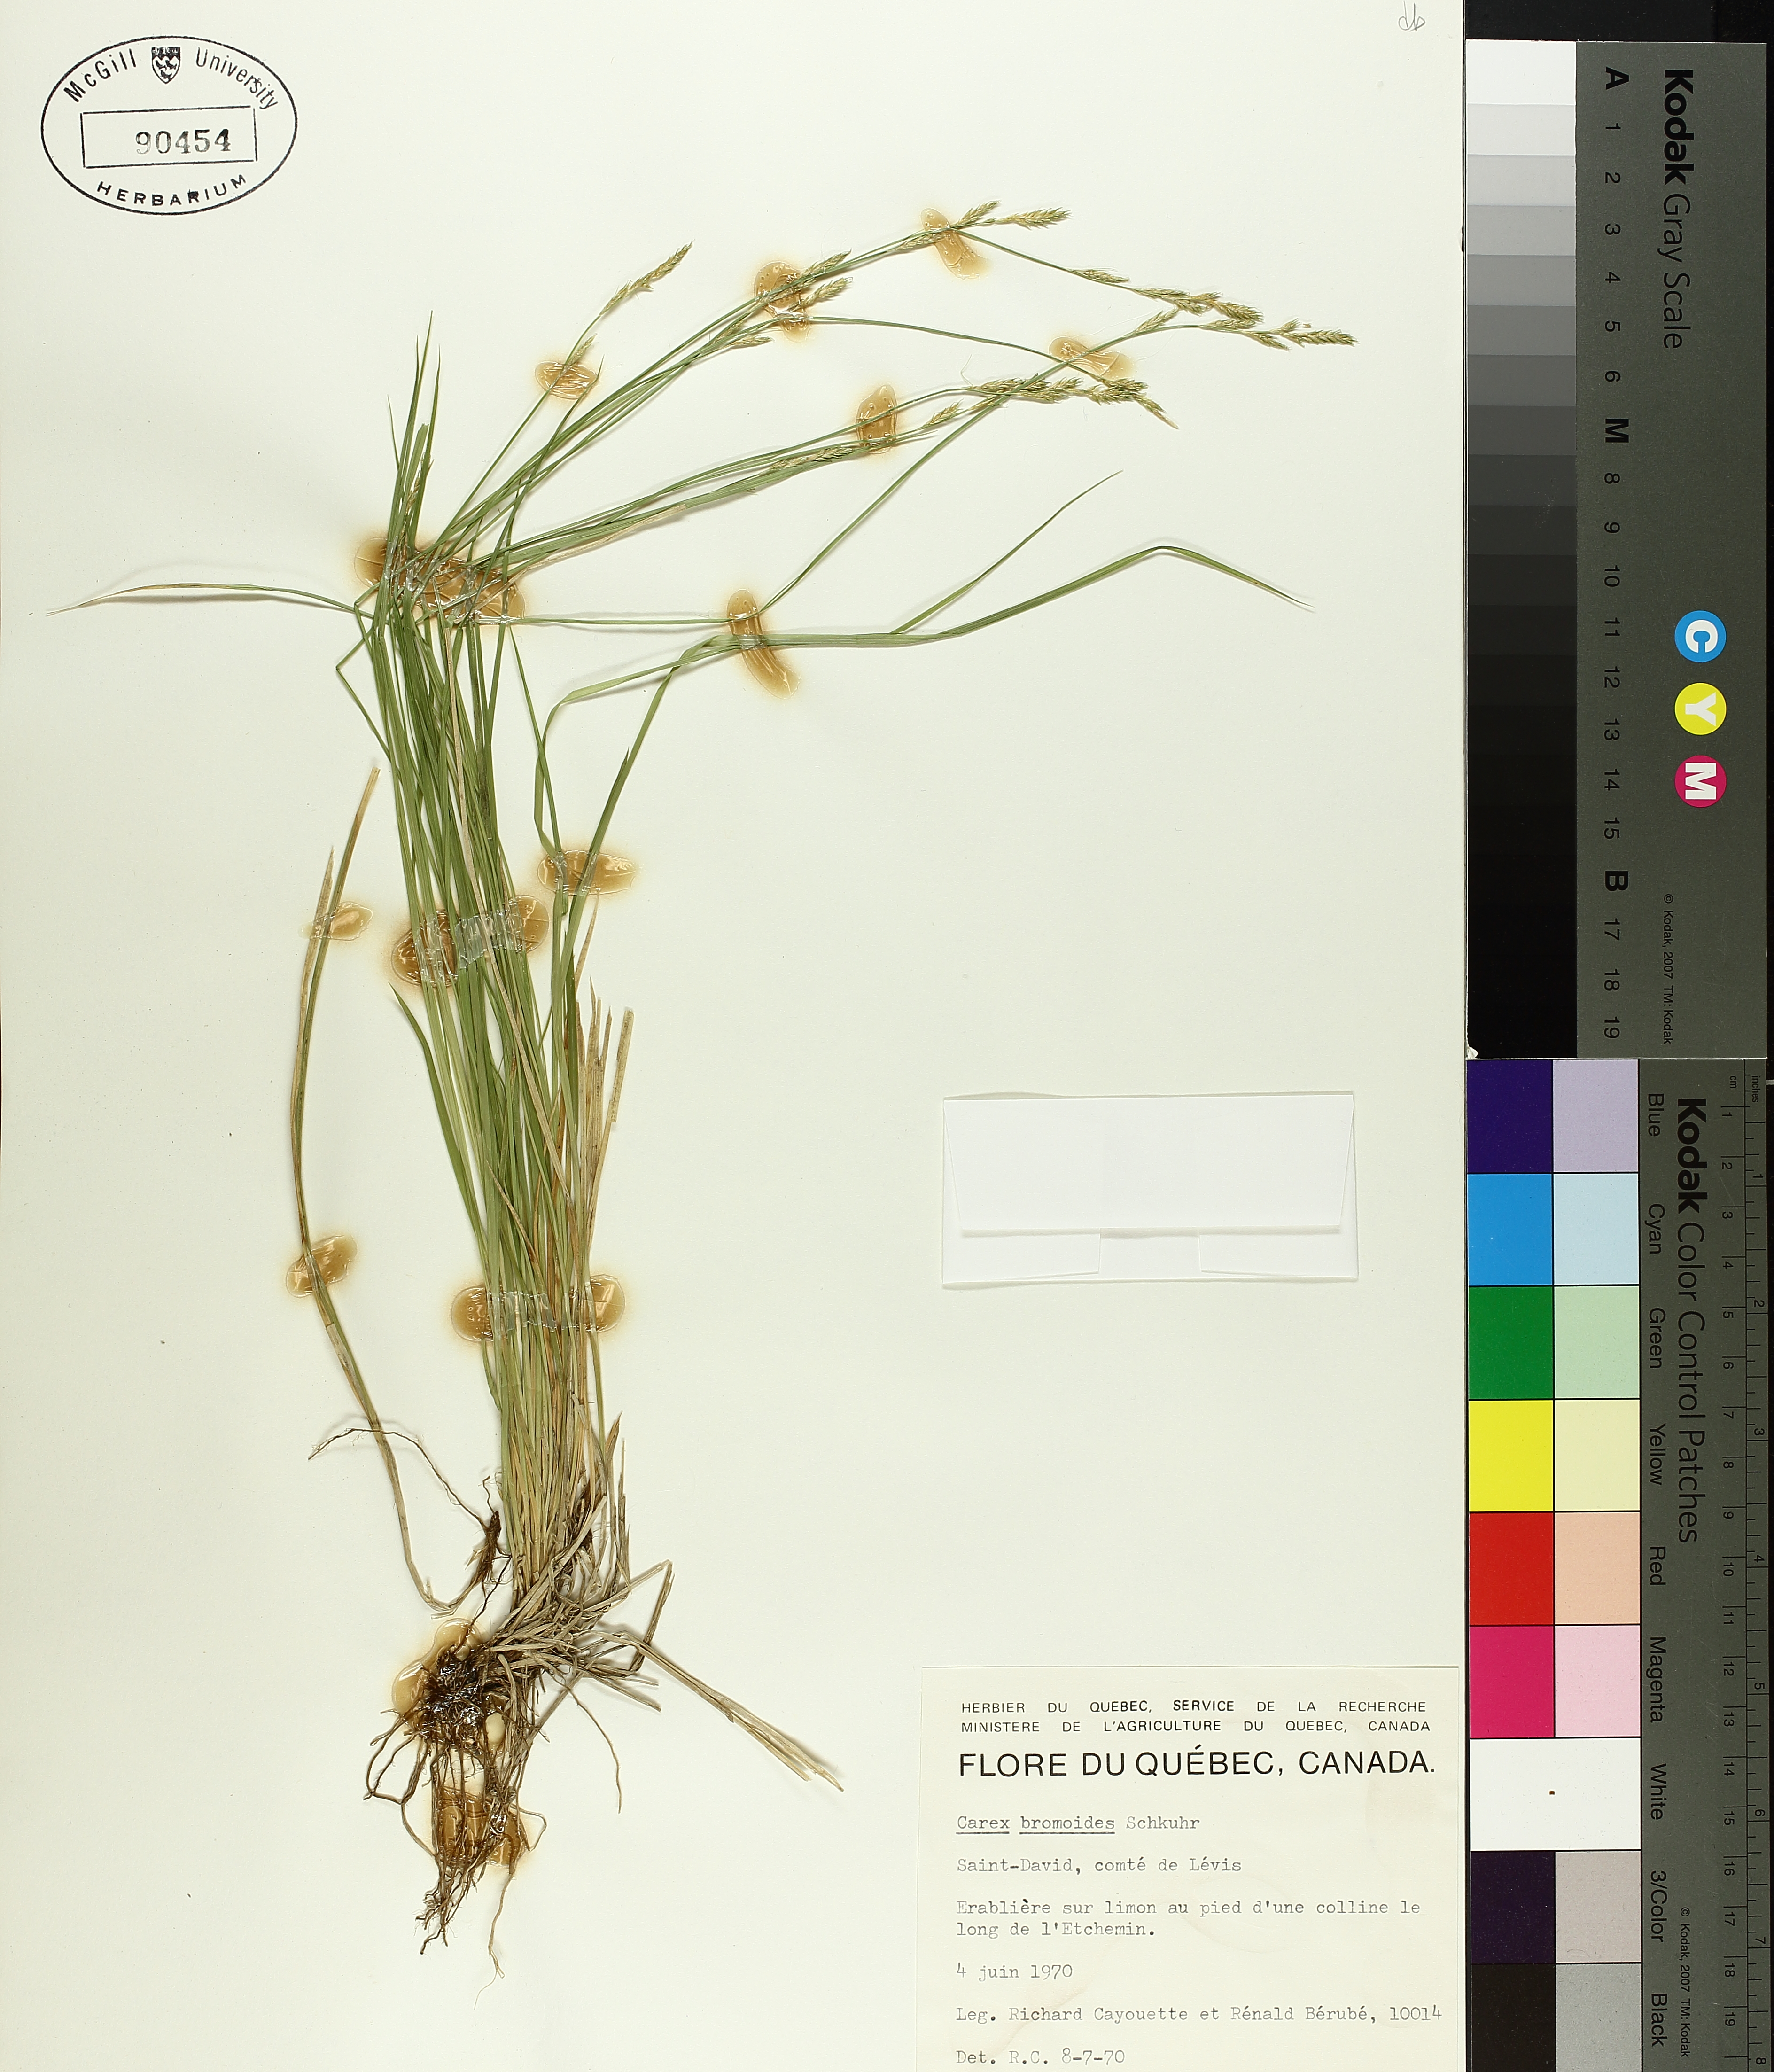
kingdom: Plantae
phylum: Tracheophyta
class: Liliopsida
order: Poales
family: Cyperaceae
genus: Carex
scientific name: Carex bromoides
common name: Brome hummock sedge
